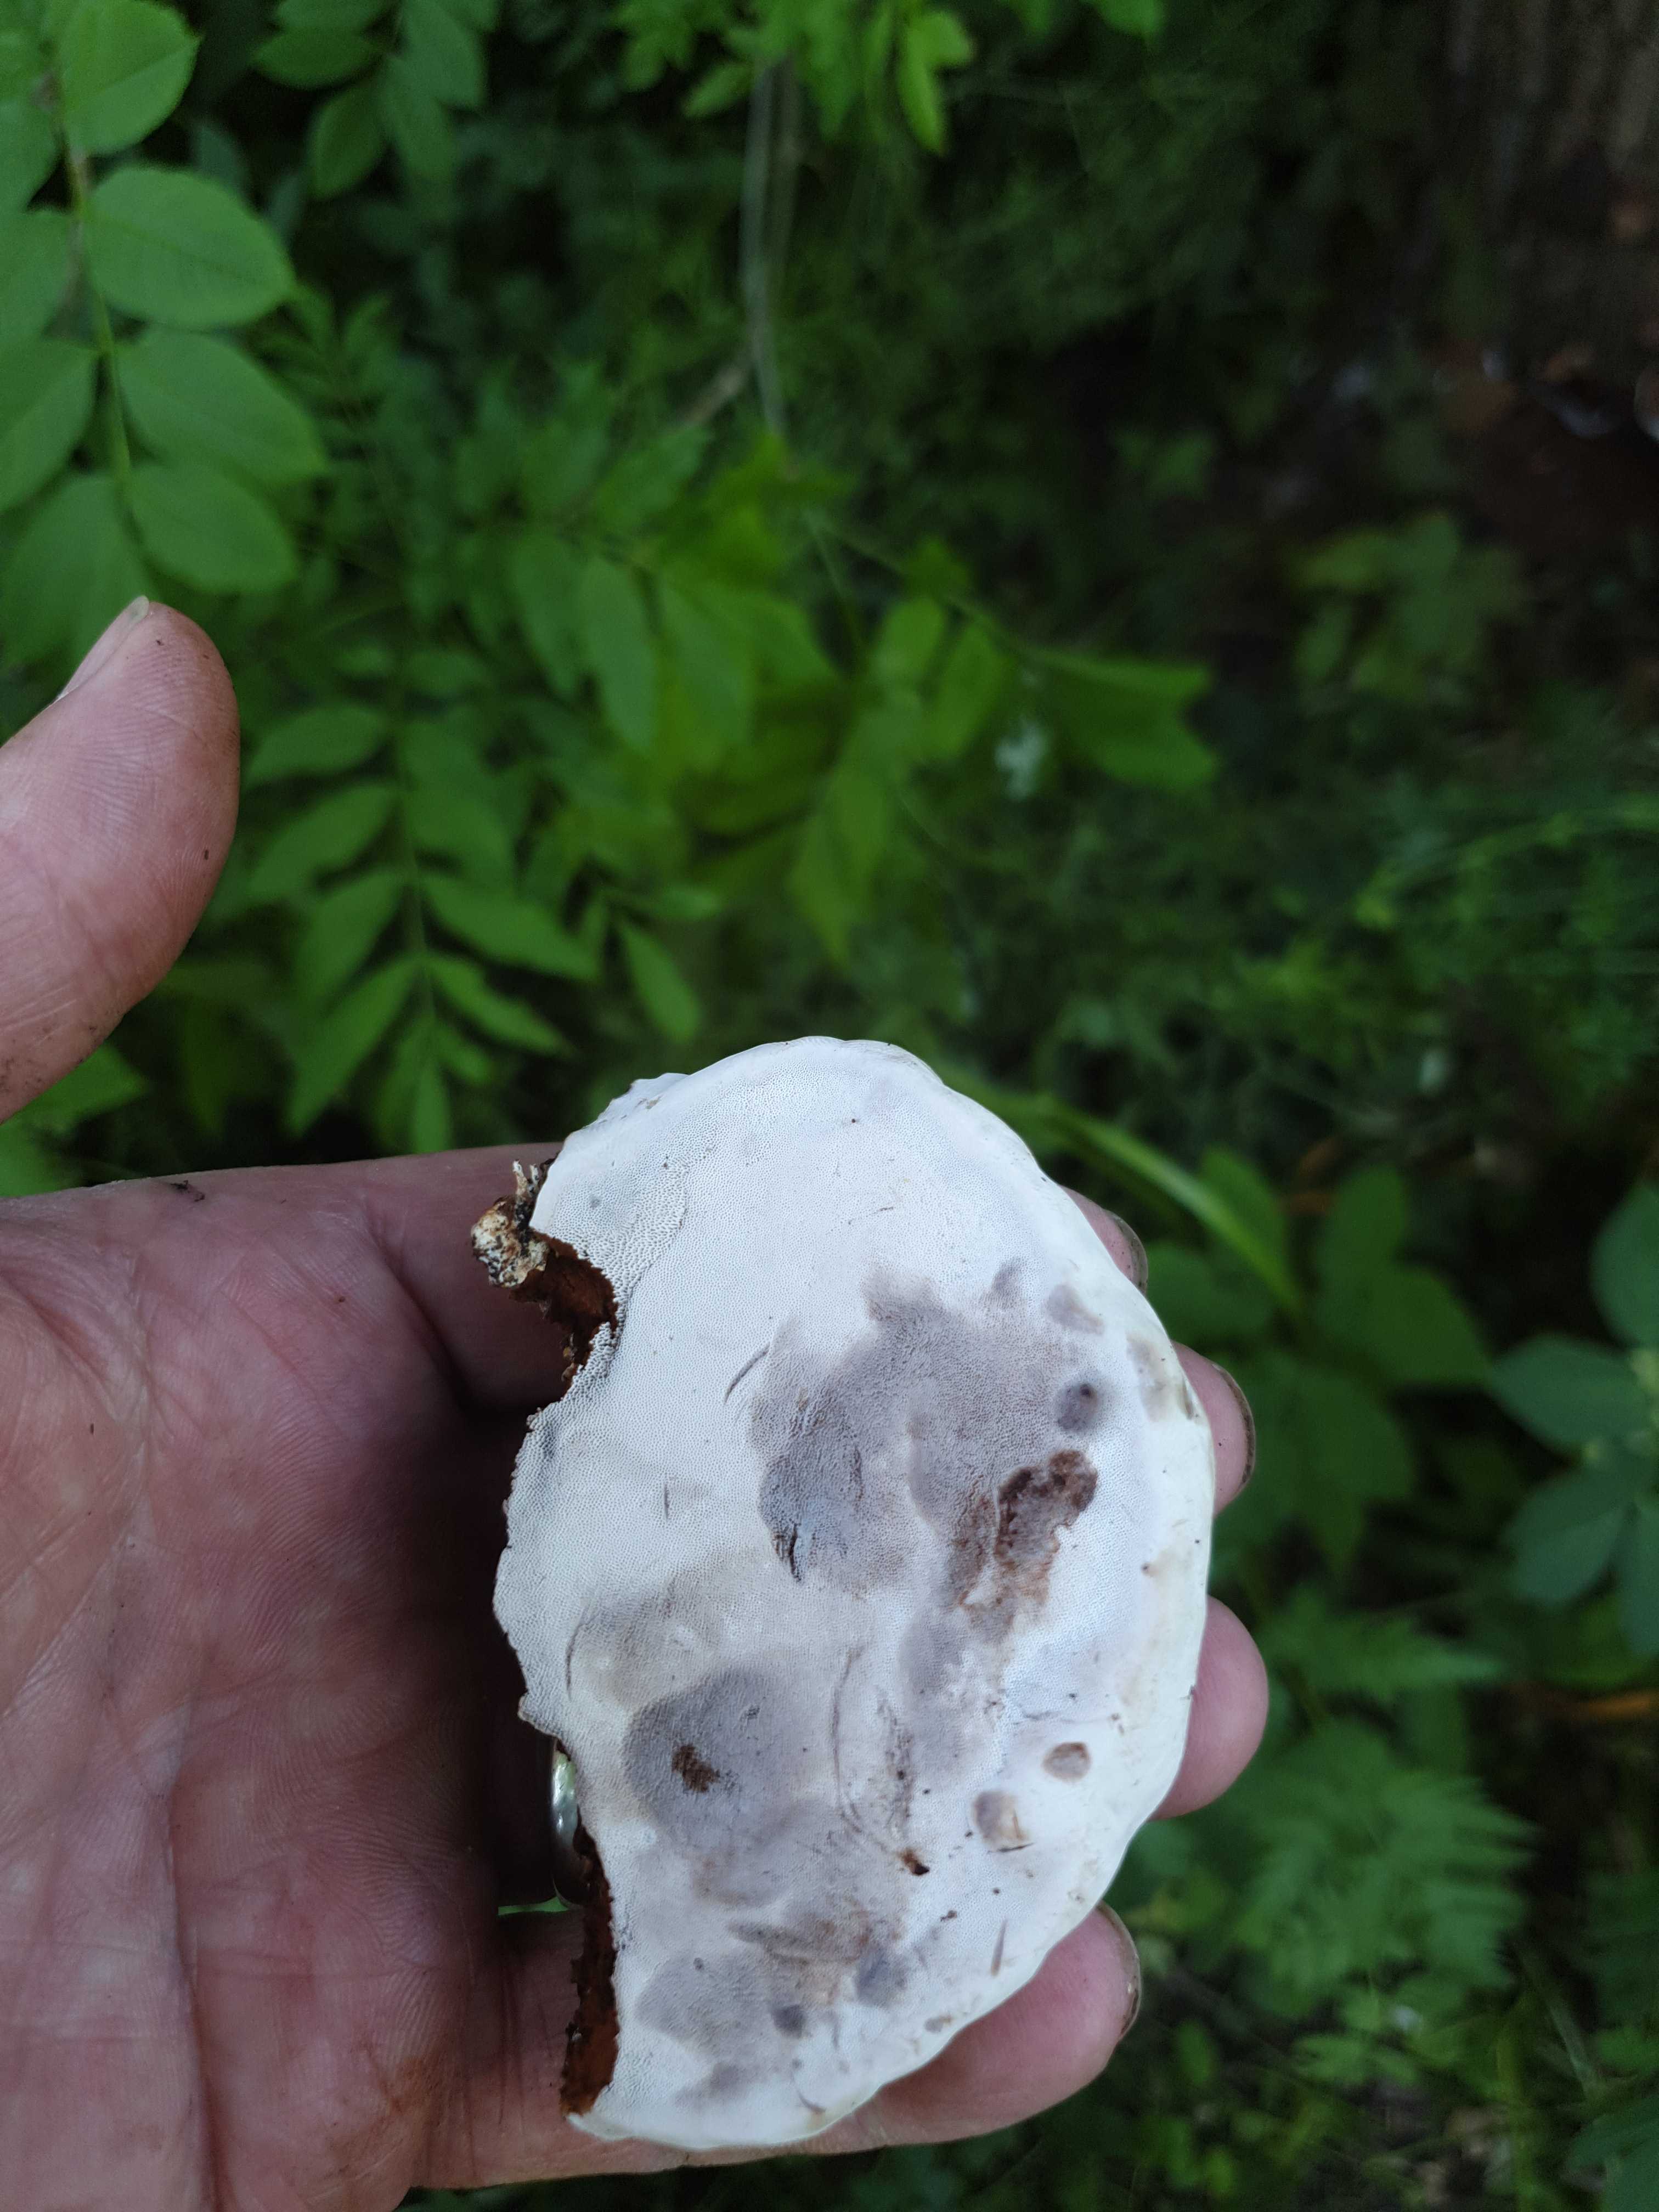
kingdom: Fungi
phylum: Basidiomycota
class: Agaricomycetes
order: Polyporales
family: Polyporaceae
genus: Ganoderma
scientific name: Ganoderma applanatum
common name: flad lakporesvamp
